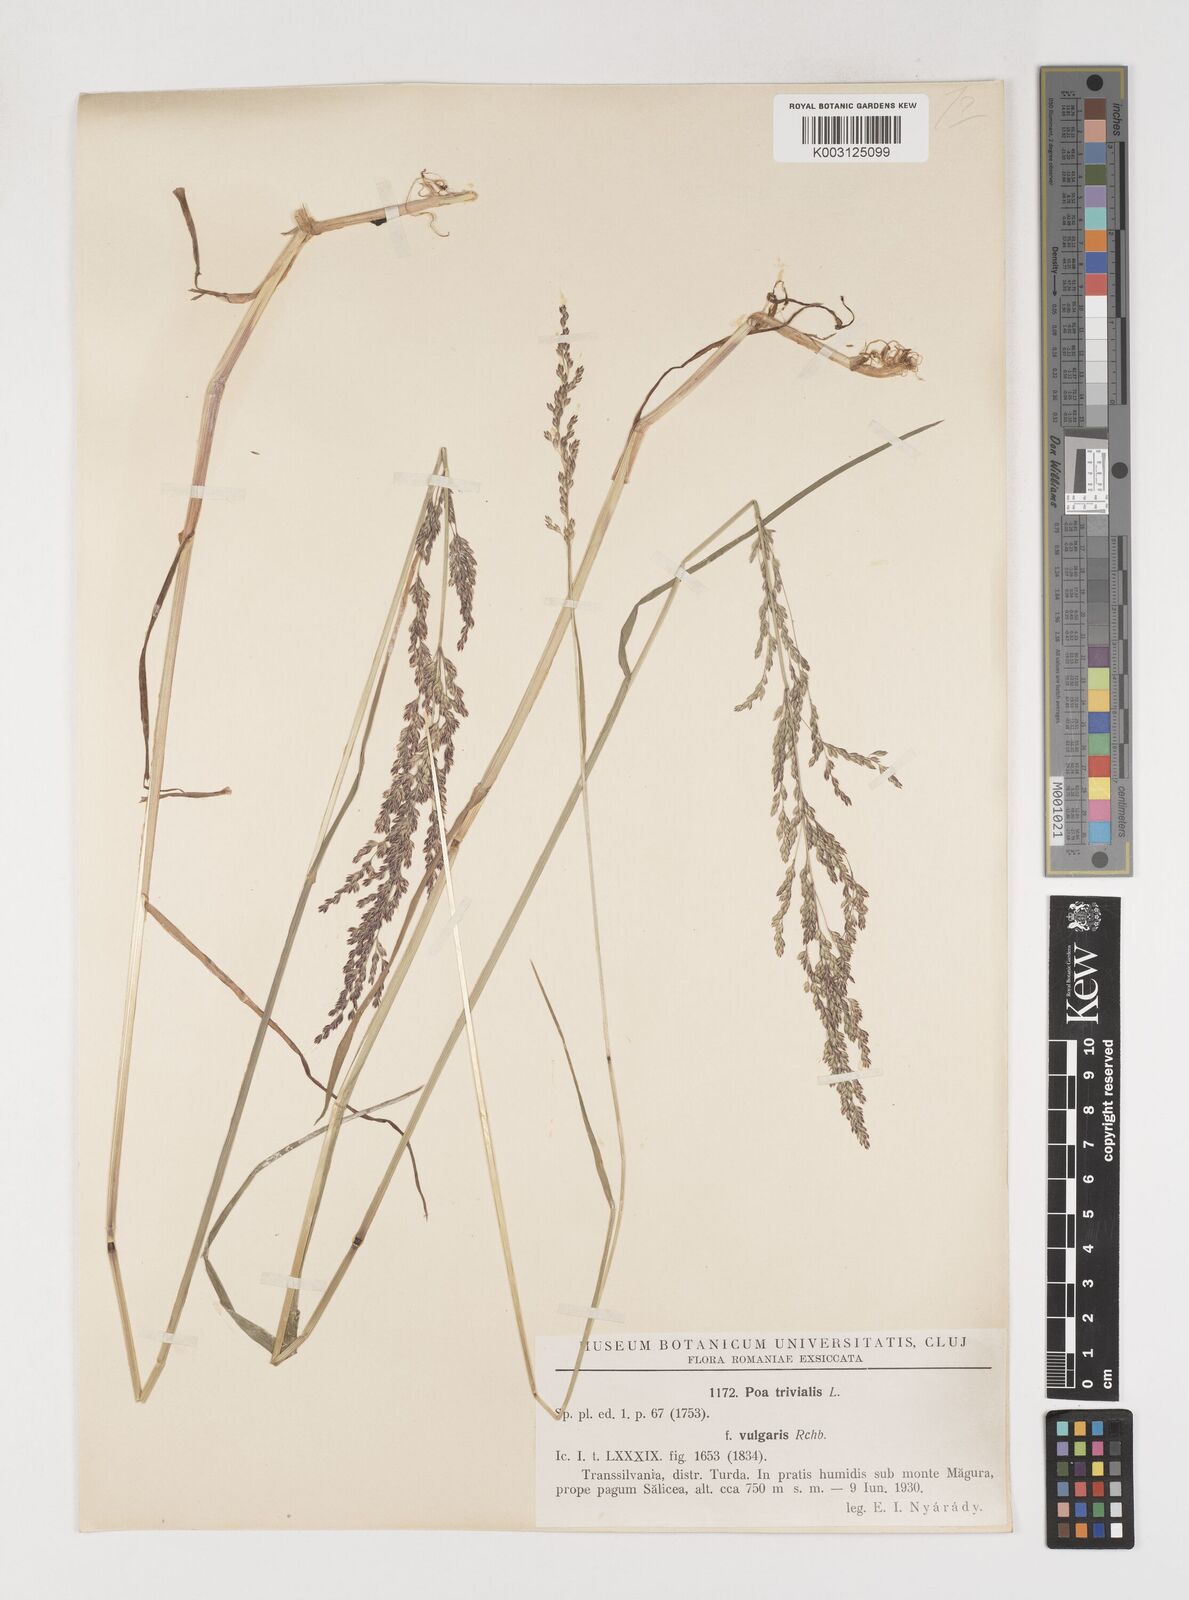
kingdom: Plantae
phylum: Tracheophyta
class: Liliopsida
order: Poales
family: Poaceae
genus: Poa
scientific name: Poa trivialis
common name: Rough bluegrass
